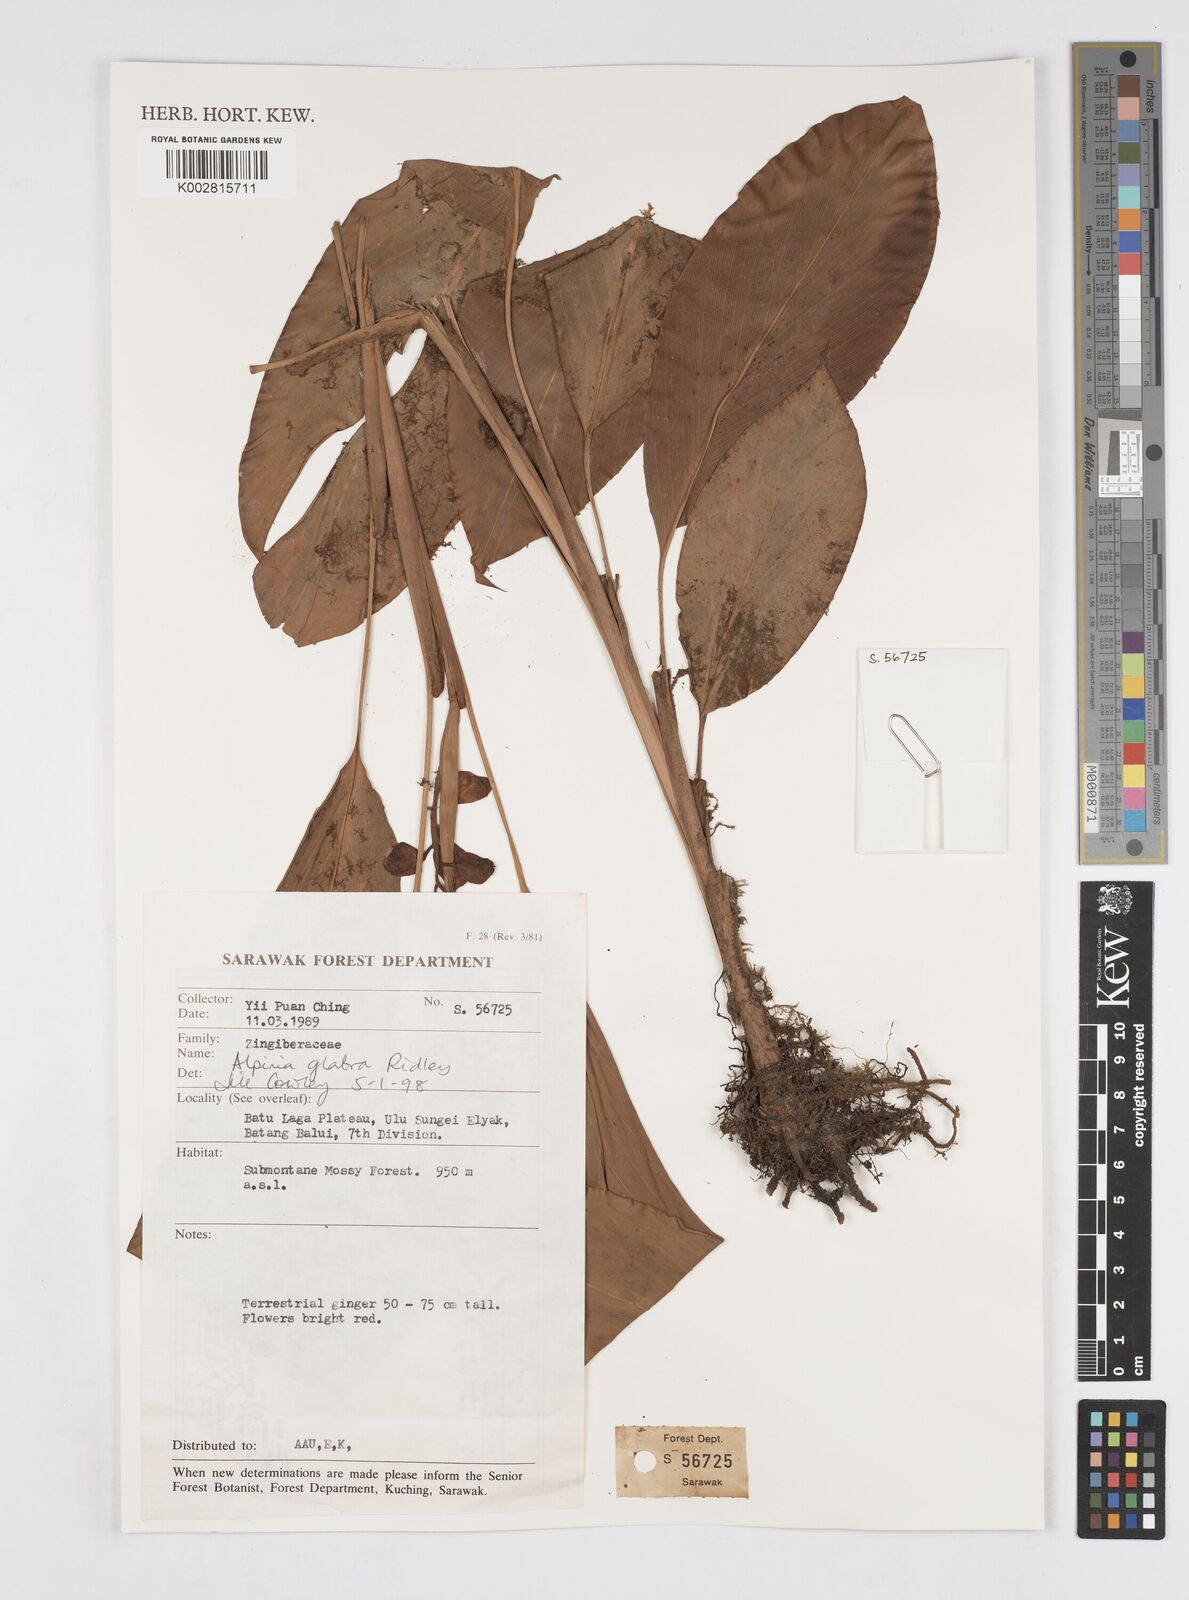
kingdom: Plantae
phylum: Tracheophyta
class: Liliopsida
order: Zingiberales
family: Zingiberaceae
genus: Alpinia
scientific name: Alpinia glabra
